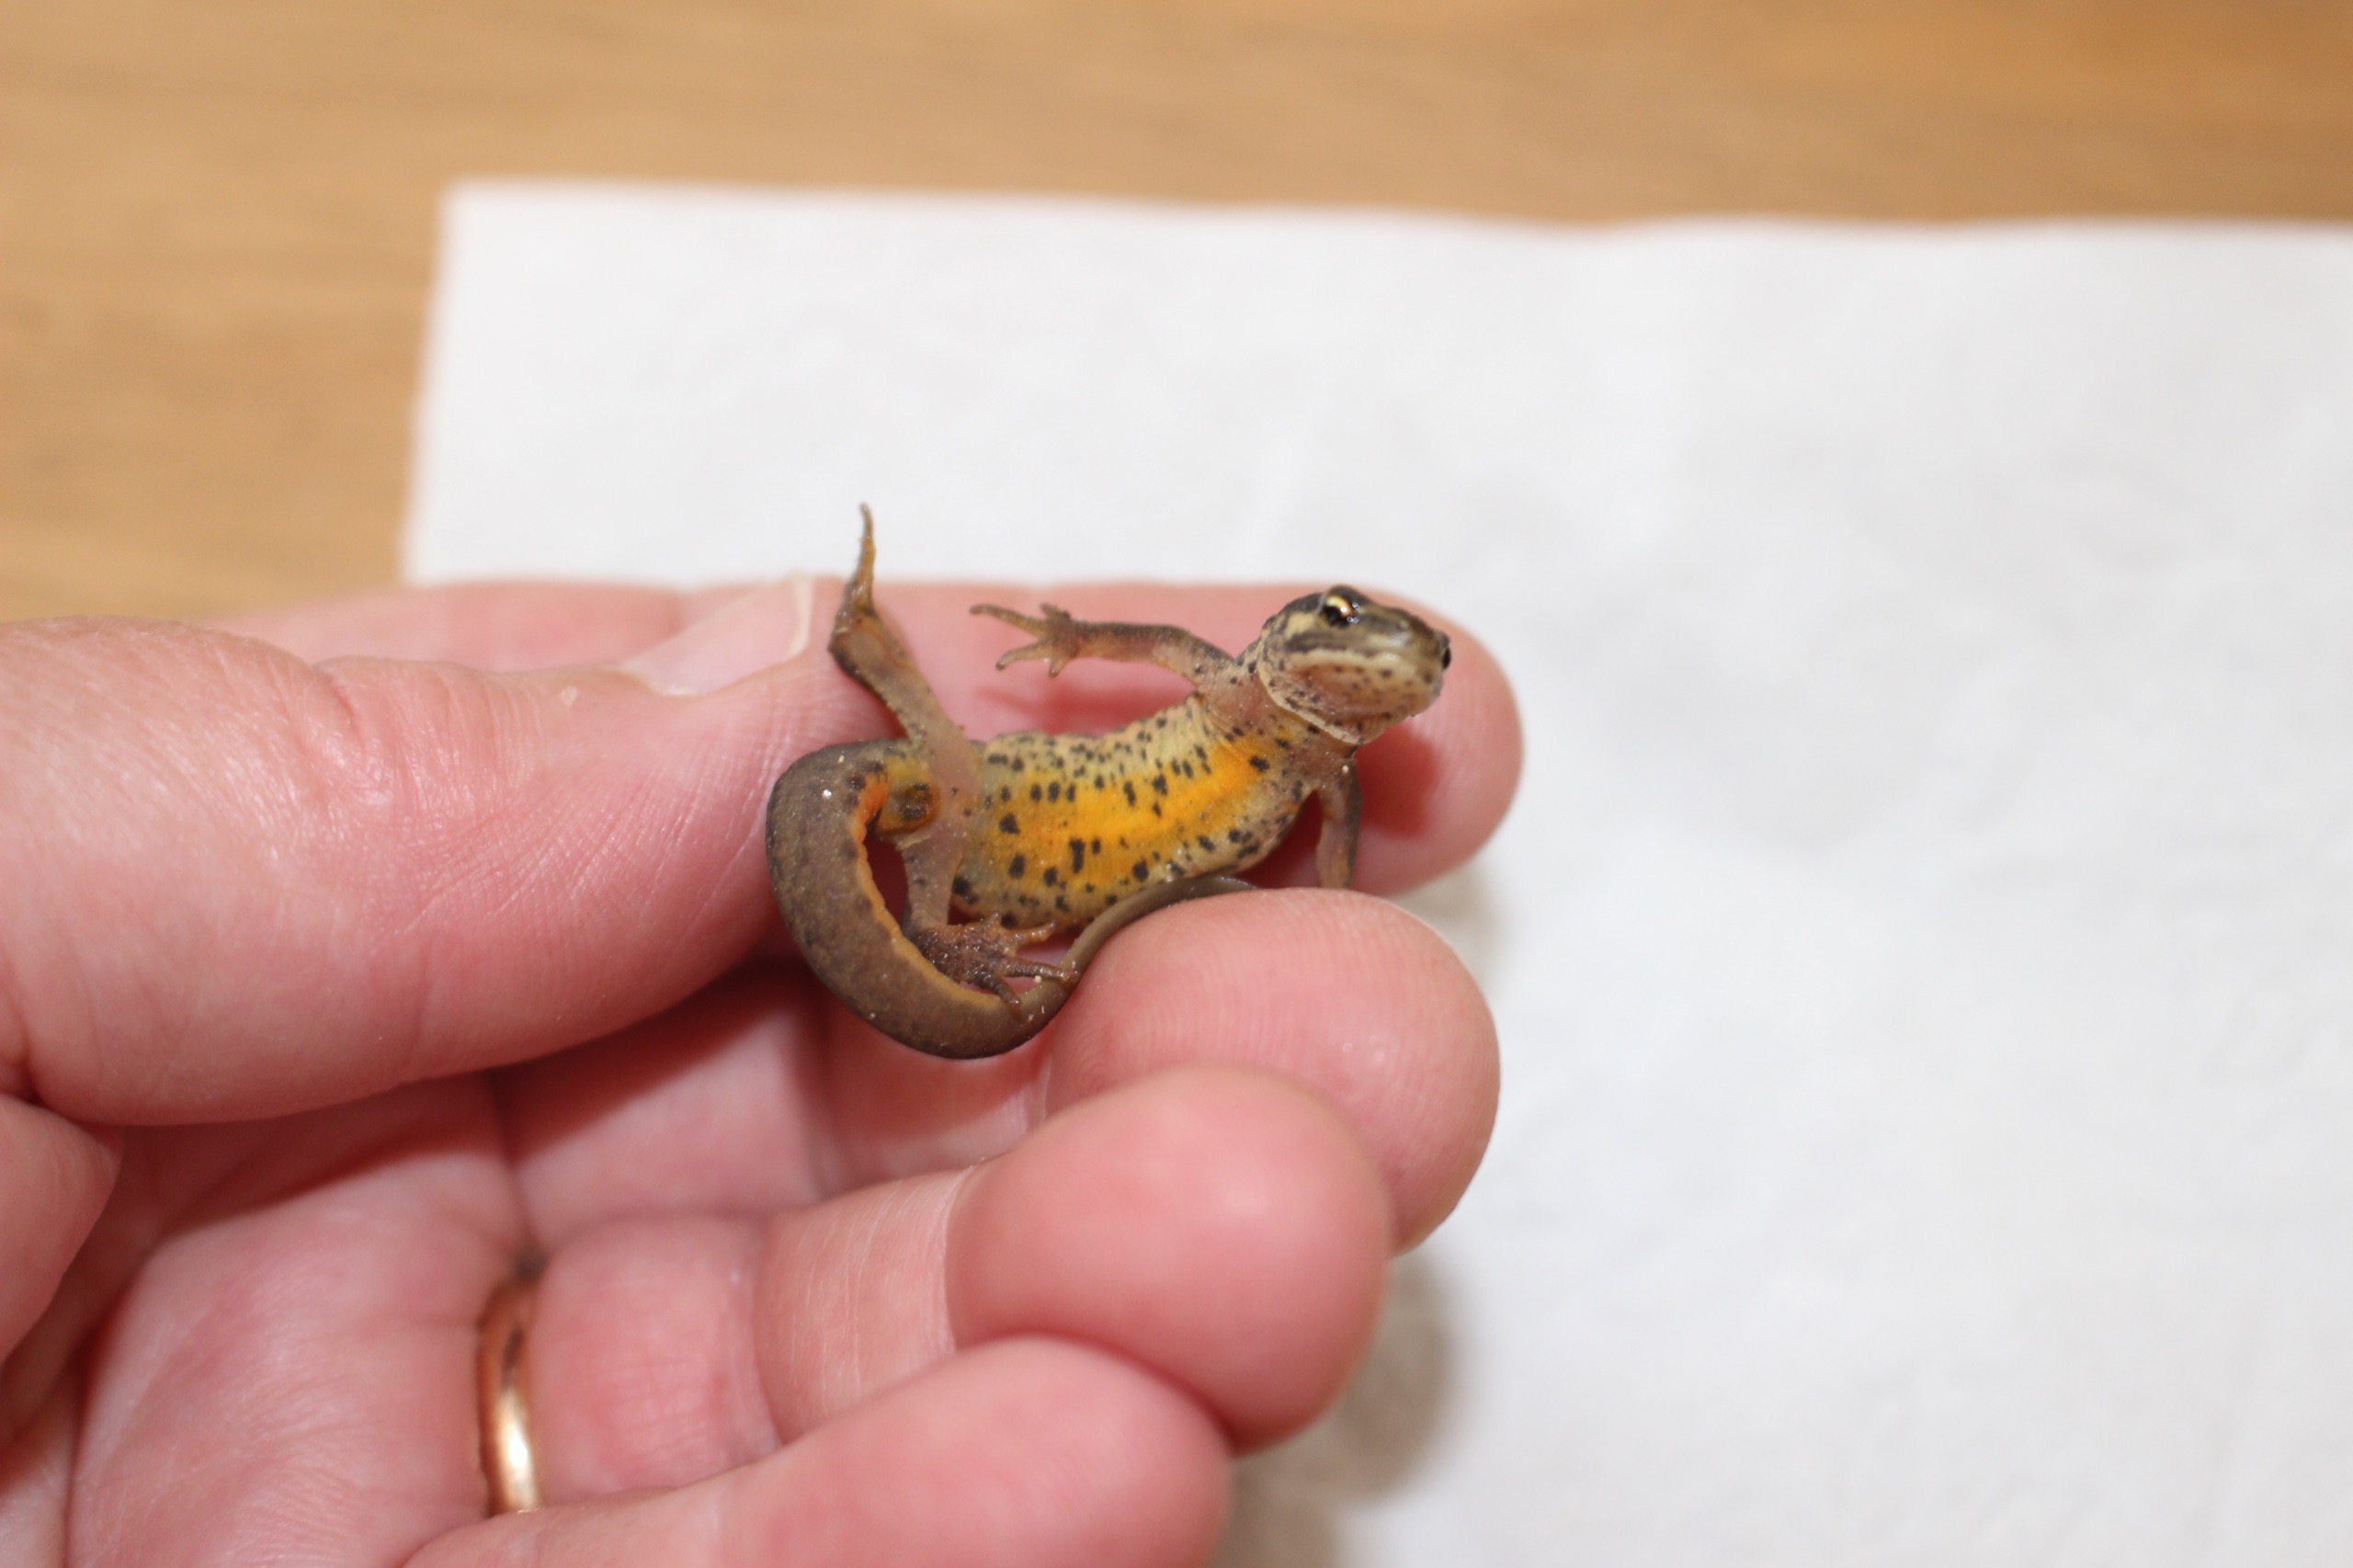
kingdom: Animalia
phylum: Chordata
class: Amphibia
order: Caudata
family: Salamandridae
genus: Lissotriton
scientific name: Lissotriton vulgaris
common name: Lille vandsalamander
